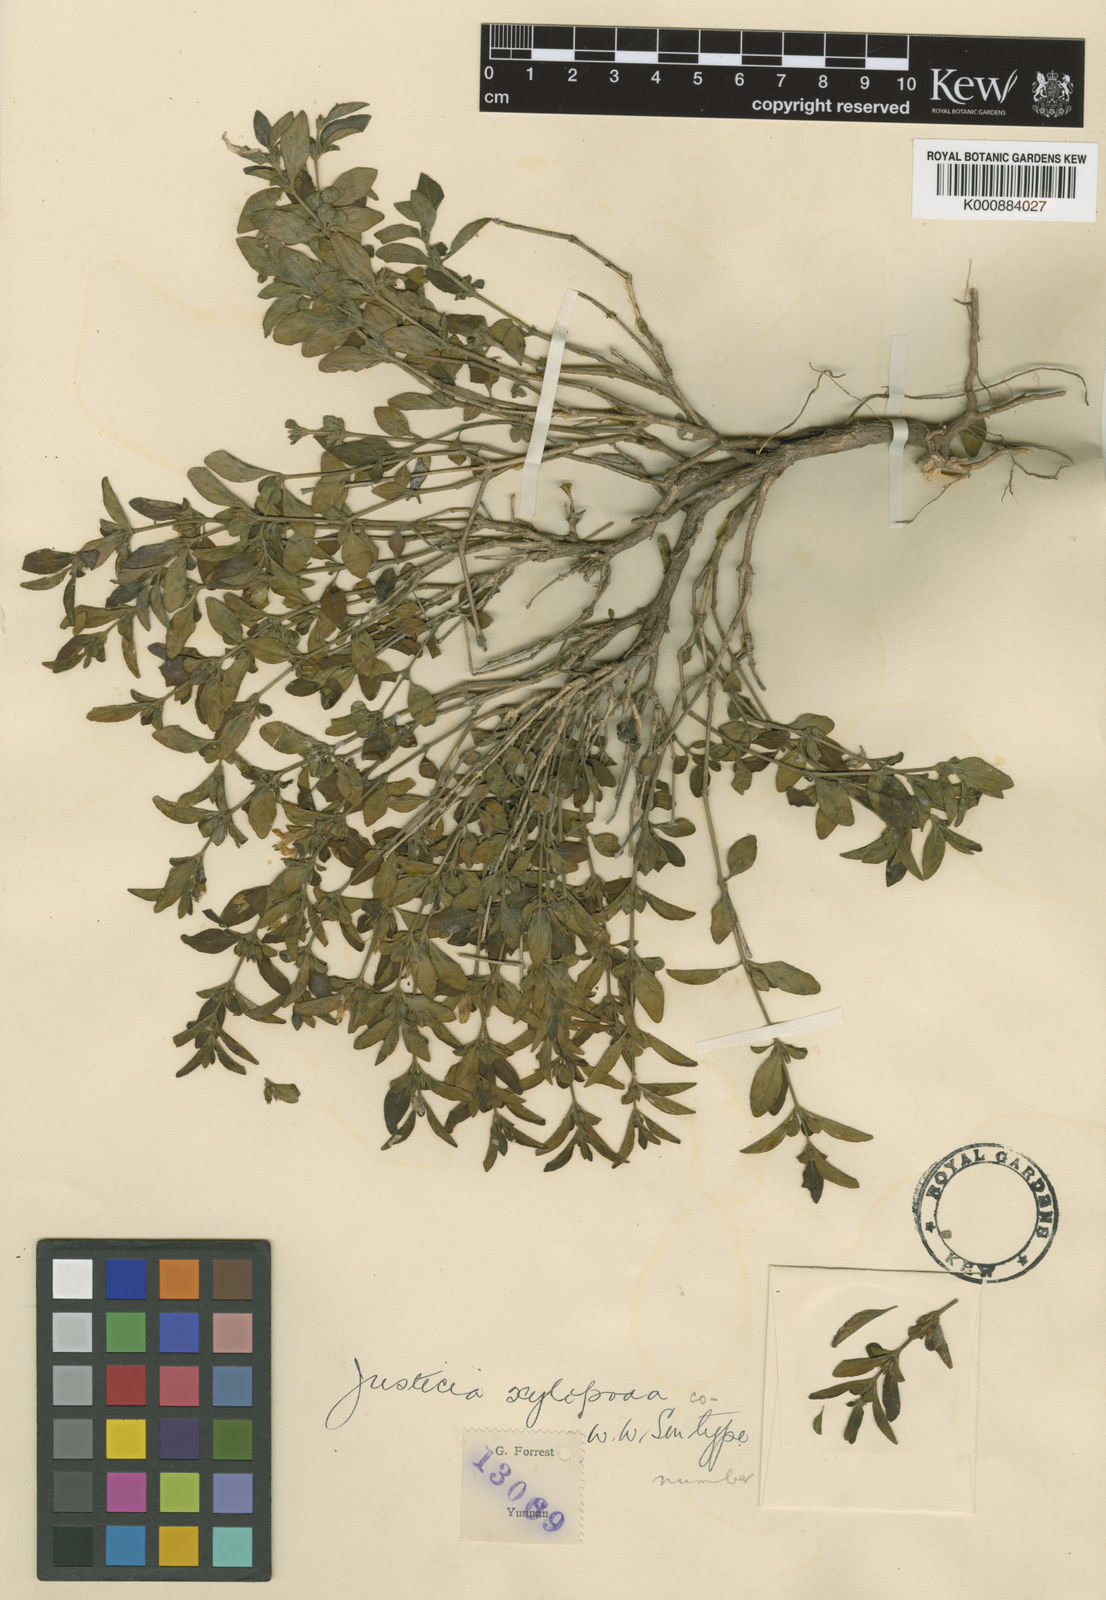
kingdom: Plantae
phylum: Tracheophyta
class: Magnoliopsida
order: Lamiales
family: Acanthaceae
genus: Justicia
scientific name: Justicia xylopoda
